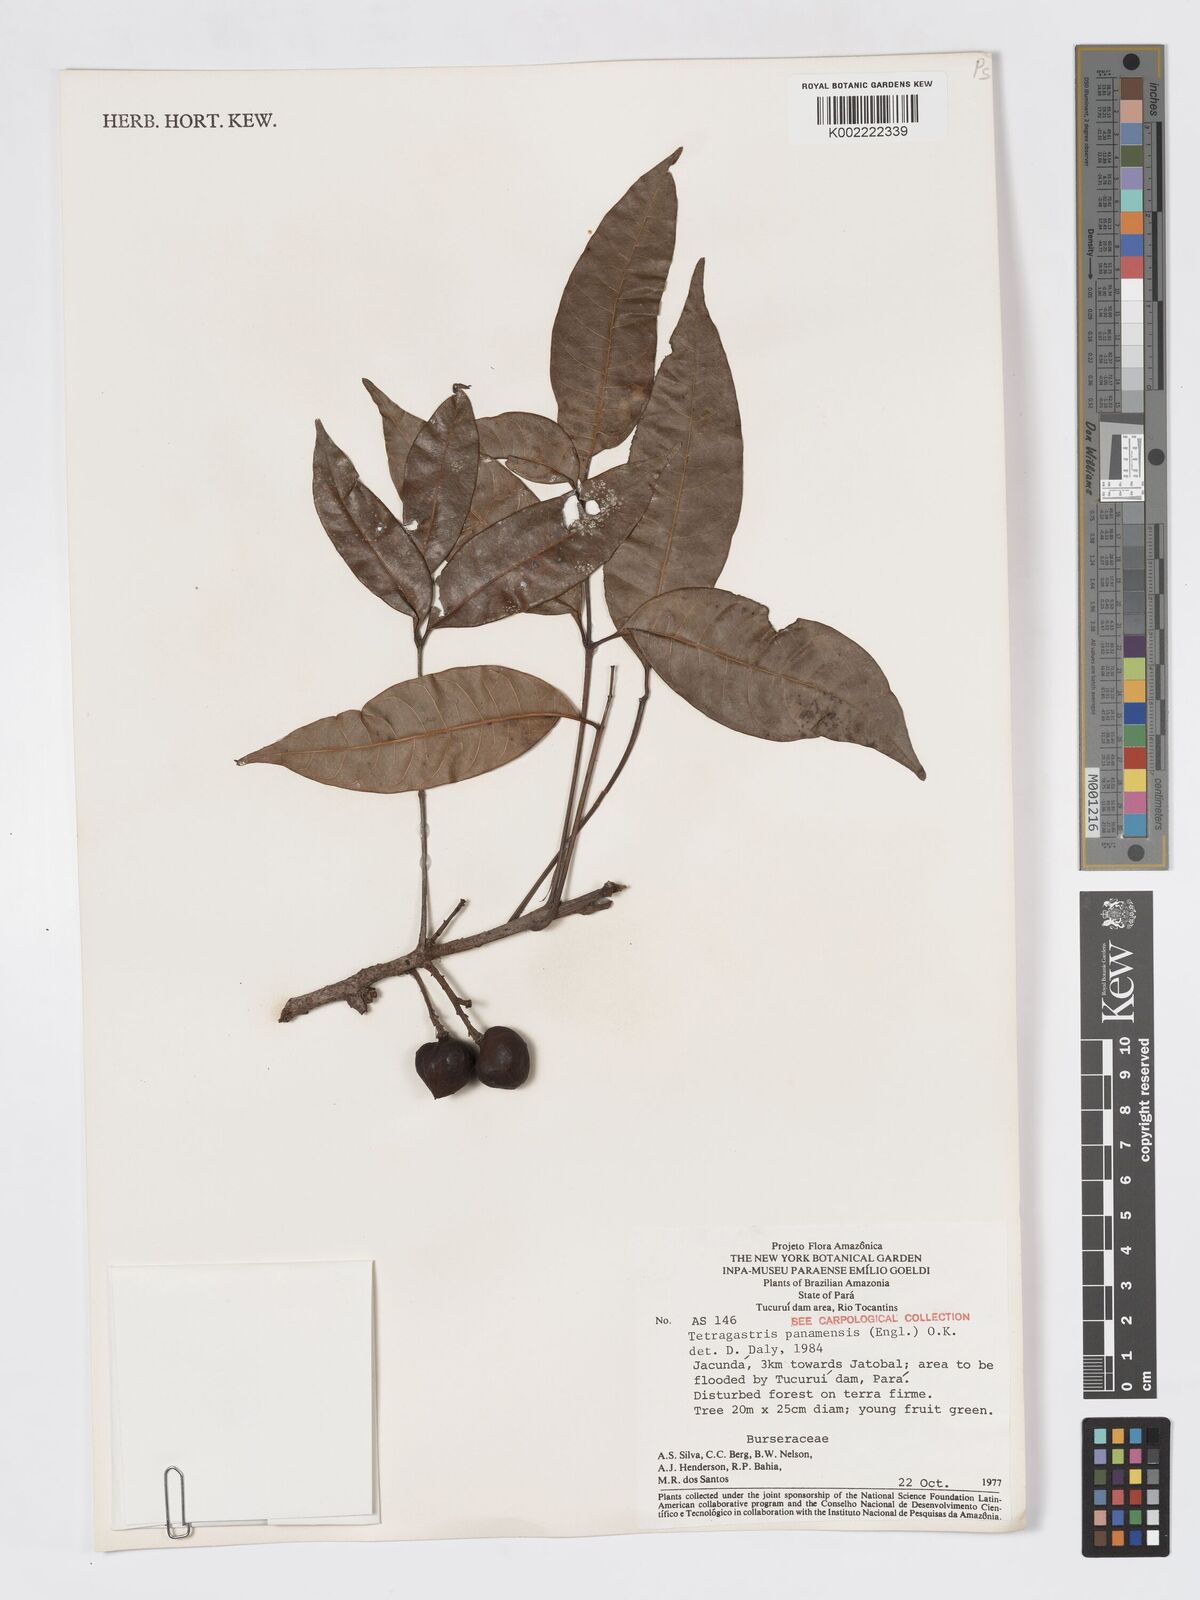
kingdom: Plantae
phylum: Tracheophyta
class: Magnoliopsida
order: Sapindales
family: Burseraceae
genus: Tetragastris
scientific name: Tetragastris panamensis
